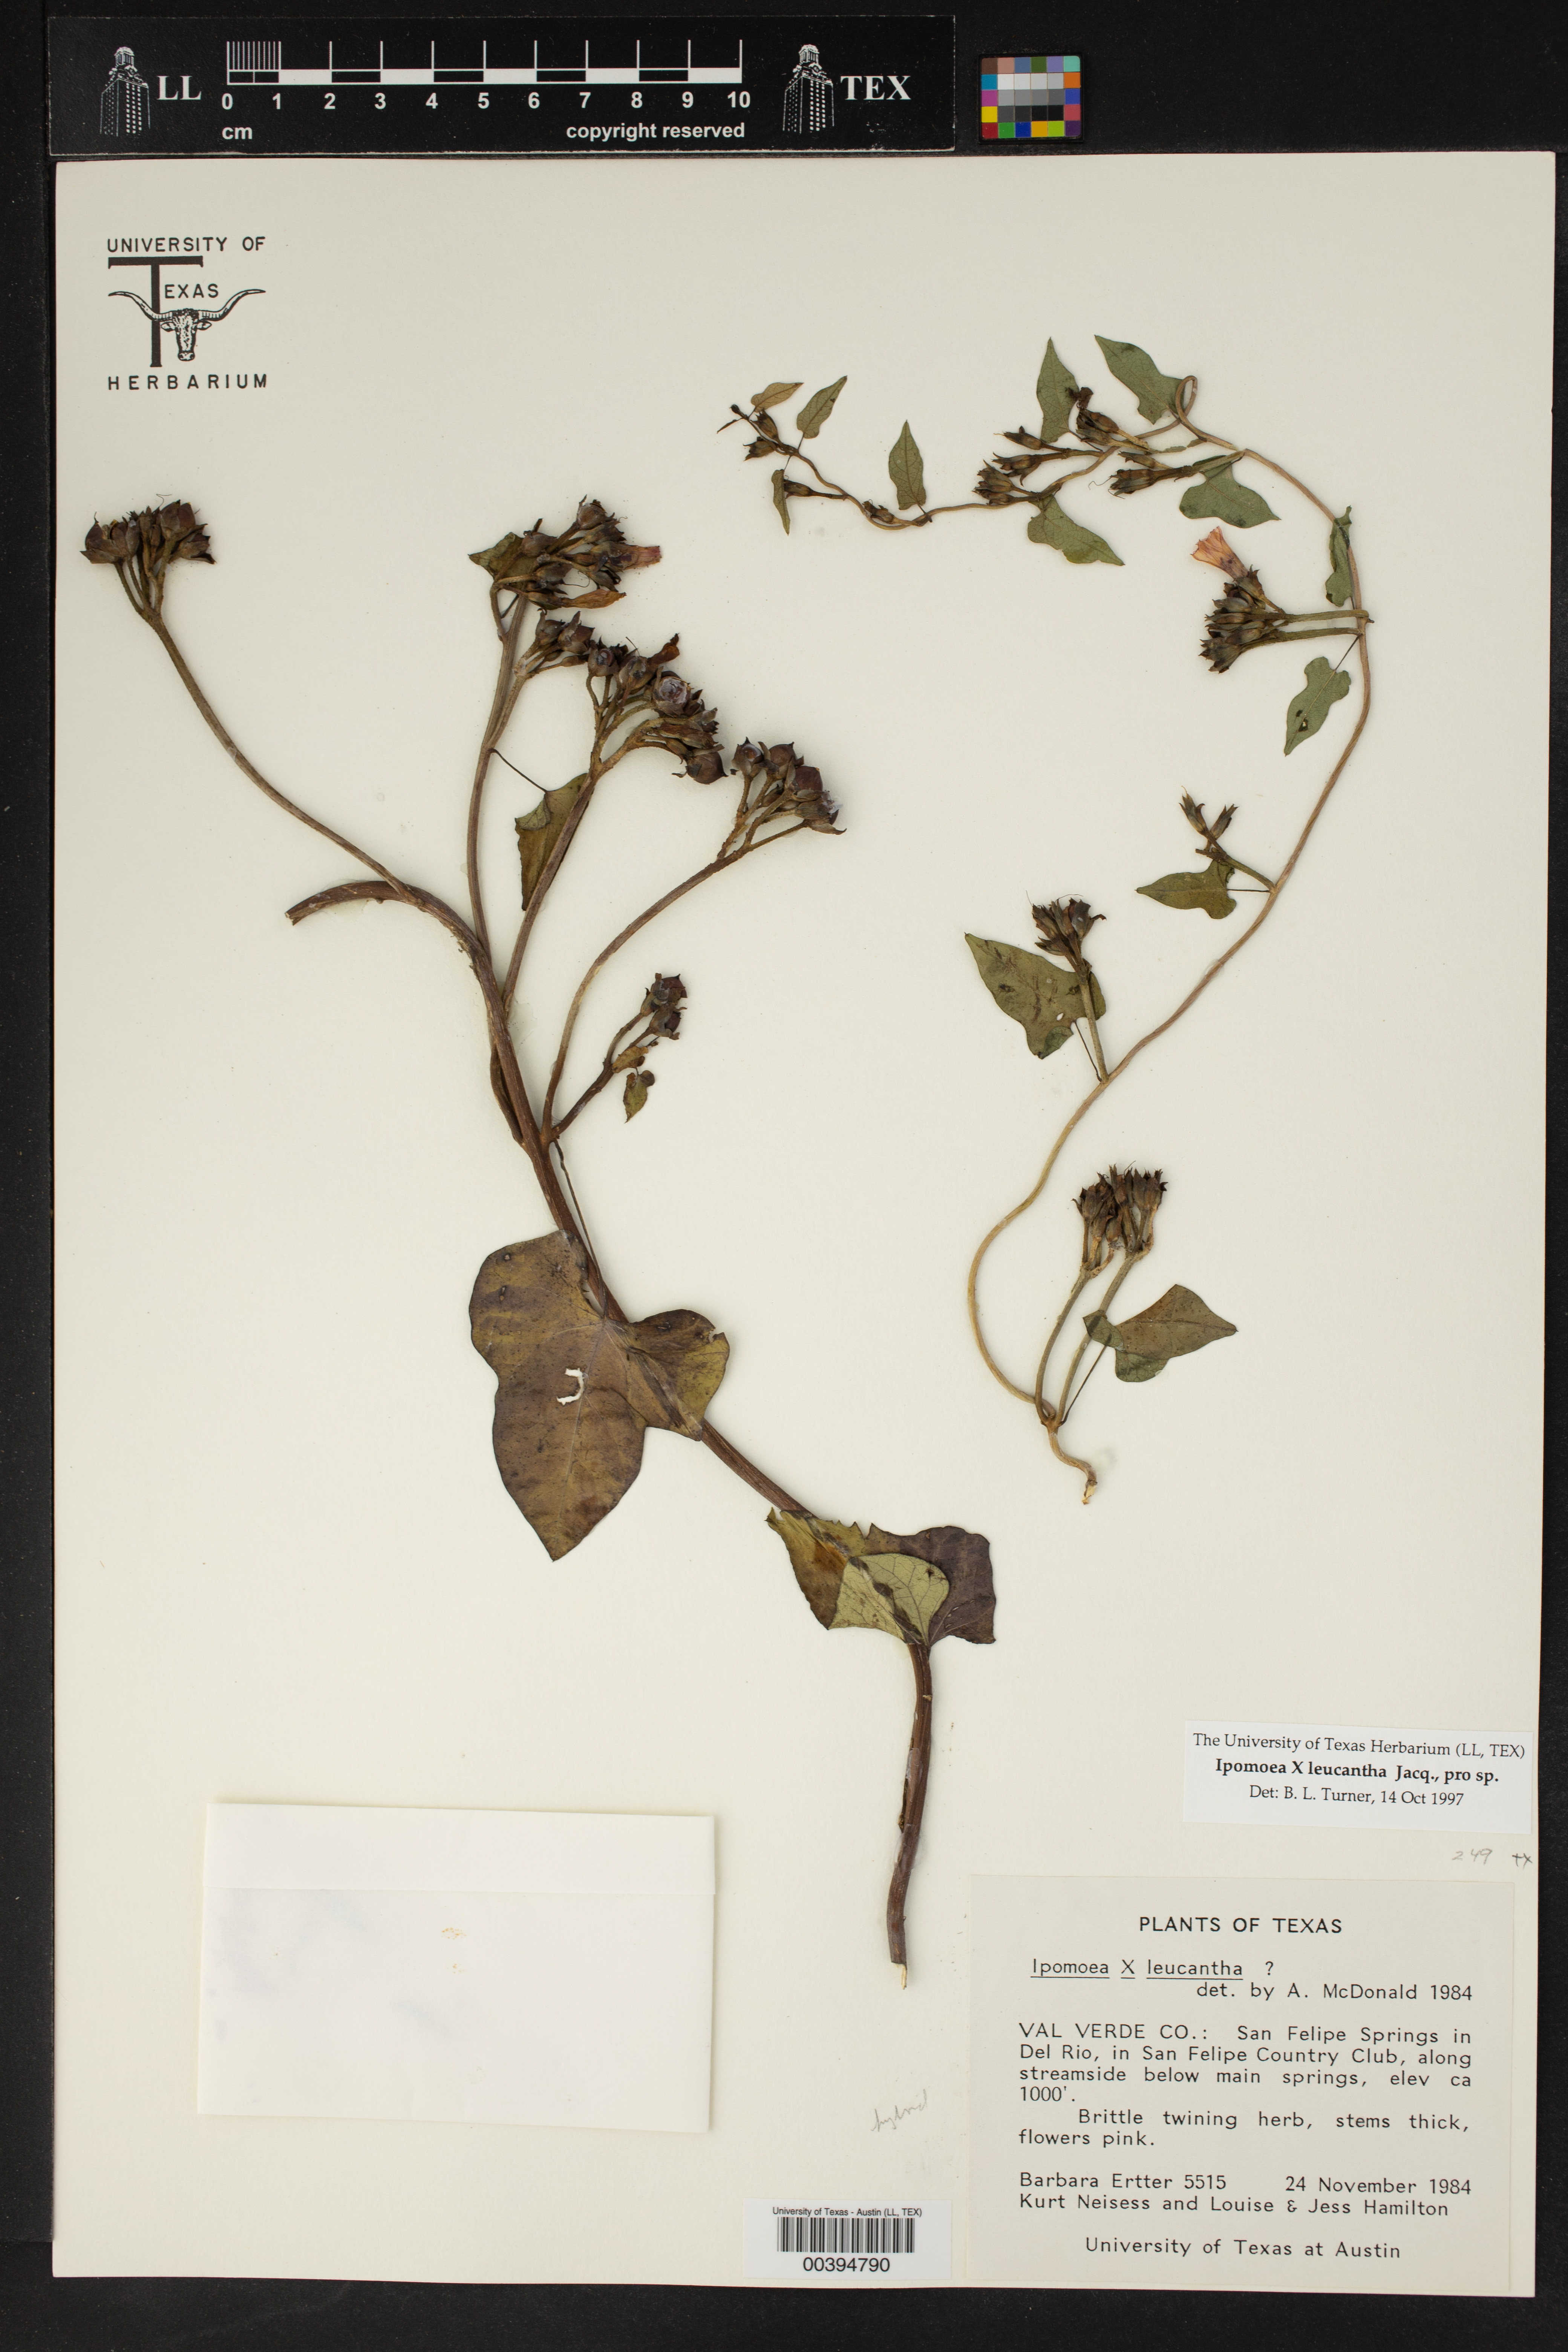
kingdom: Plantae
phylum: Tracheophyta
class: Magnoliopsida
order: Solanales
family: Convolvulaceae
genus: Ipomoea
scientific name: Ipomoea leucantha
